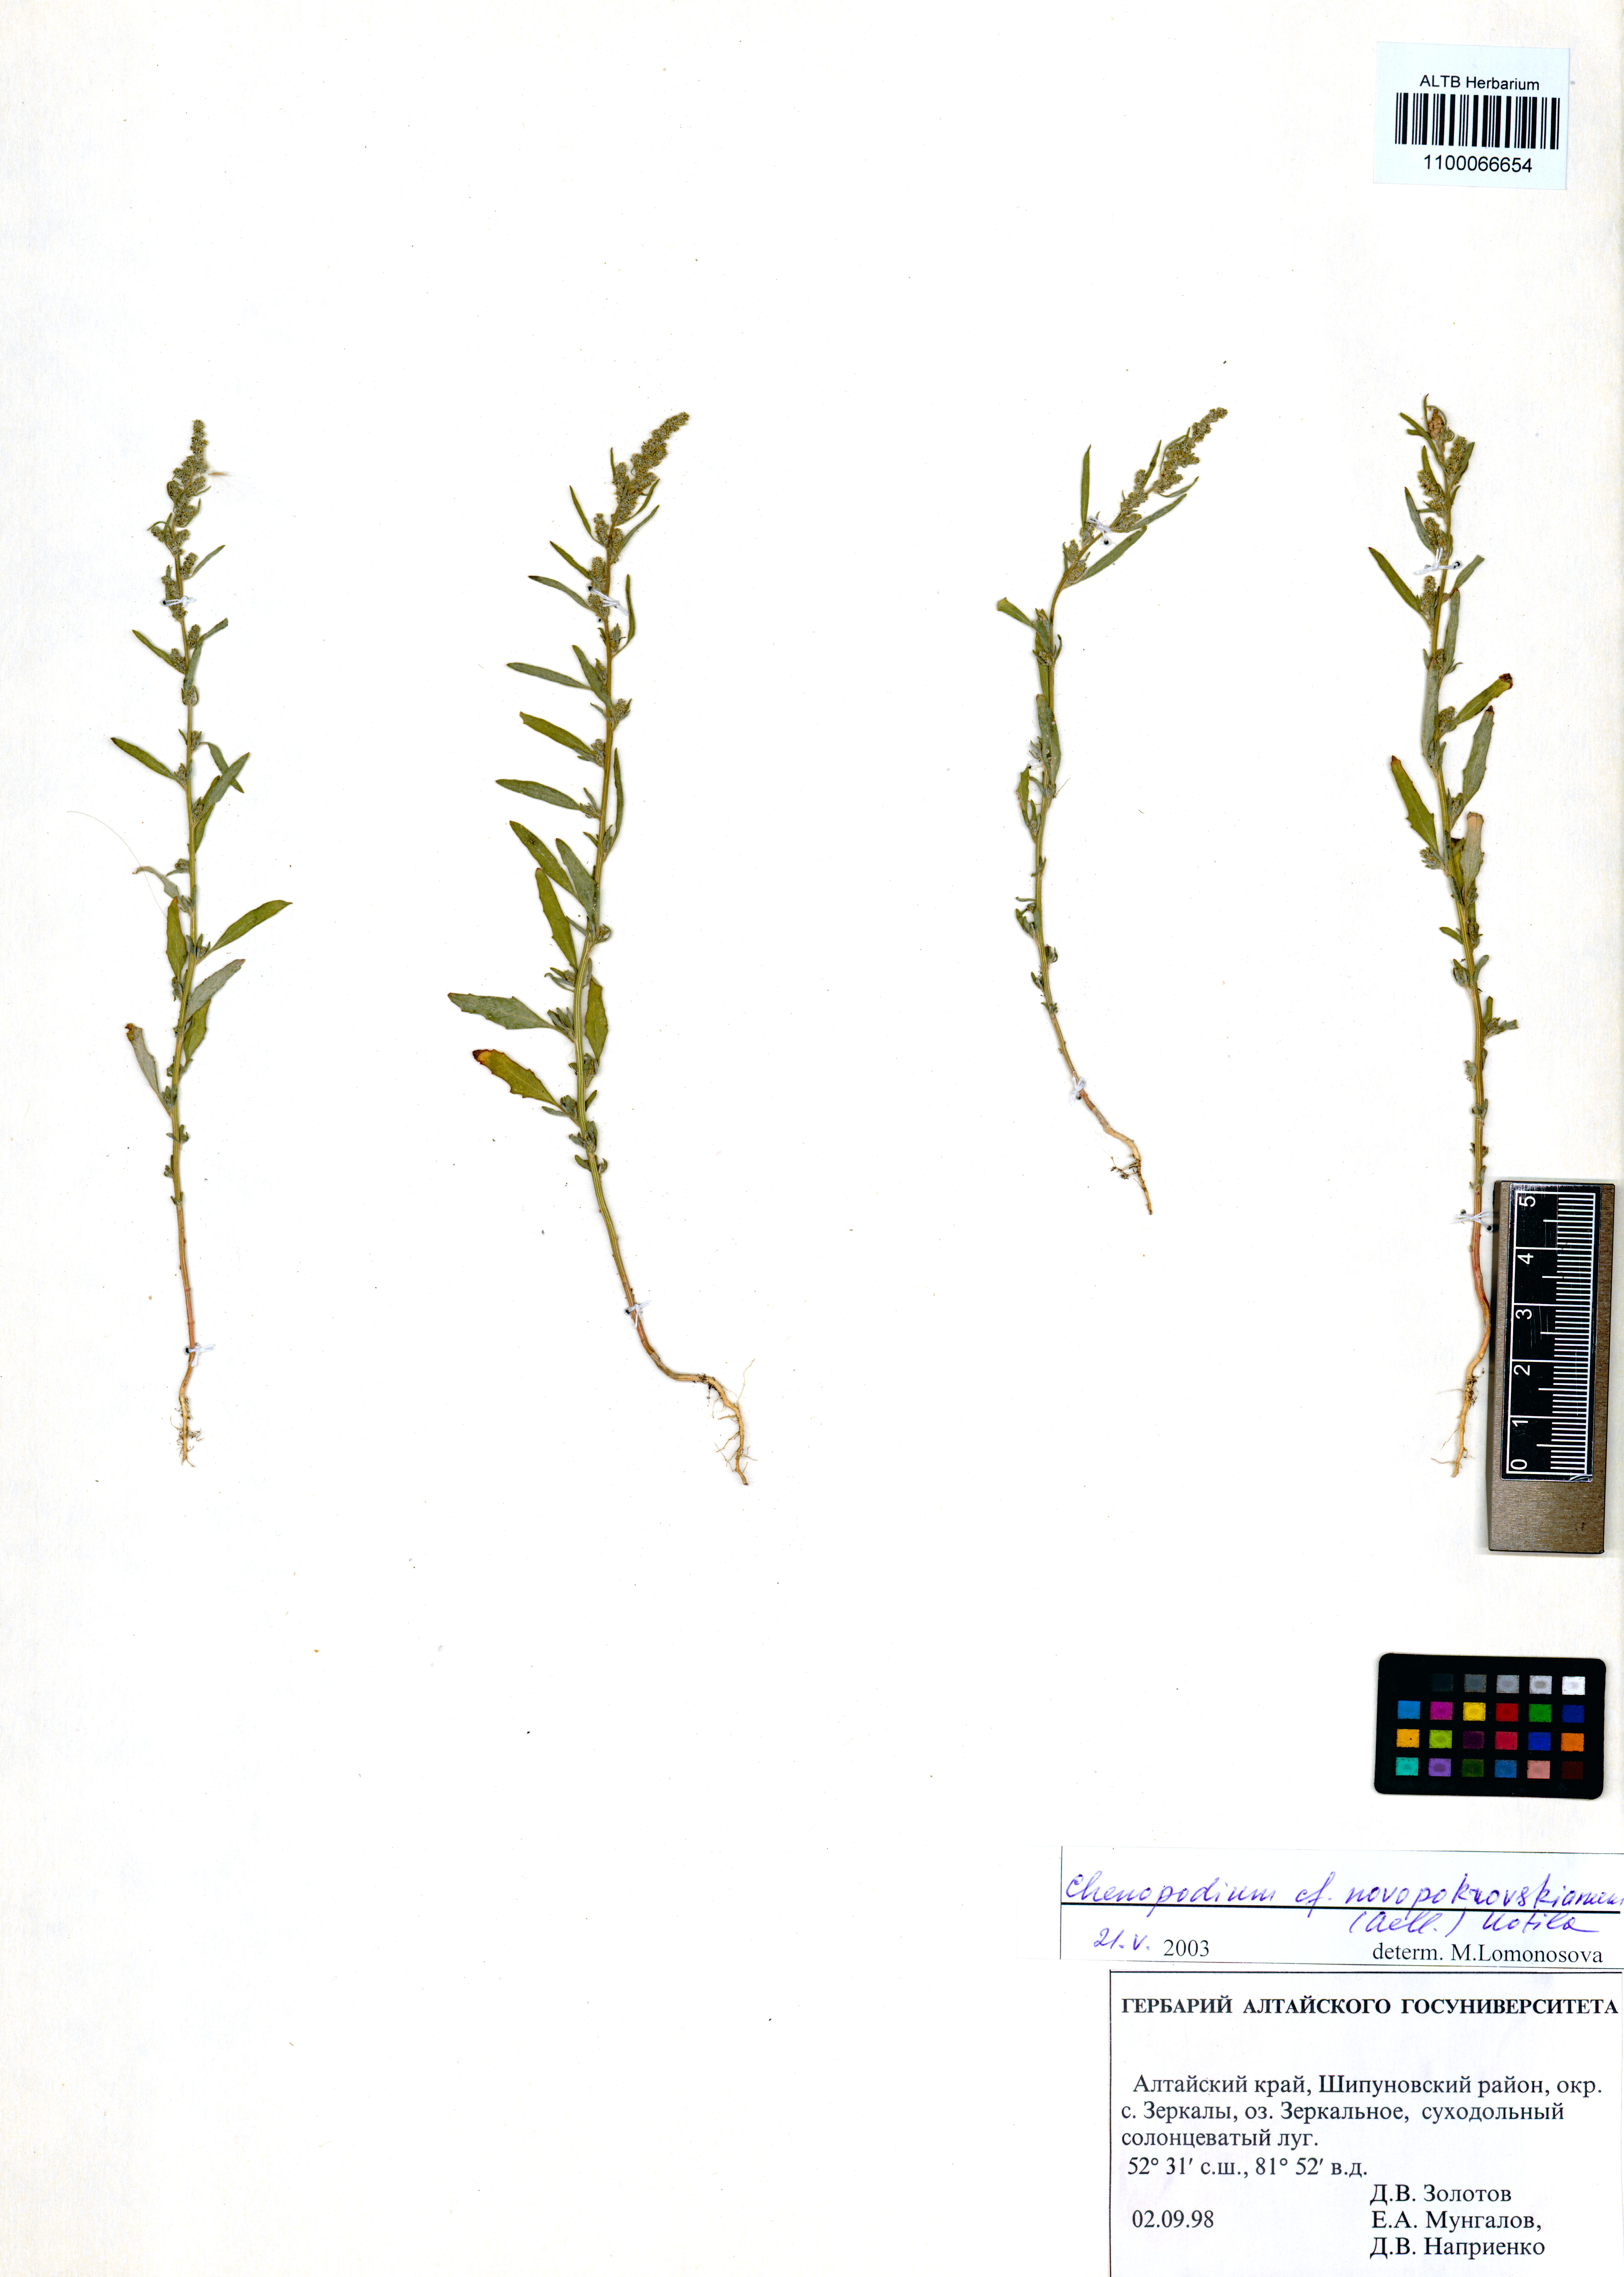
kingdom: Plantae
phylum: Tracheophyta
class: Magnoliopsida
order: Caryophyllales
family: Amaranthaceae
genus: Chenopodium
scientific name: Chenopodium novopokrovskyanum
